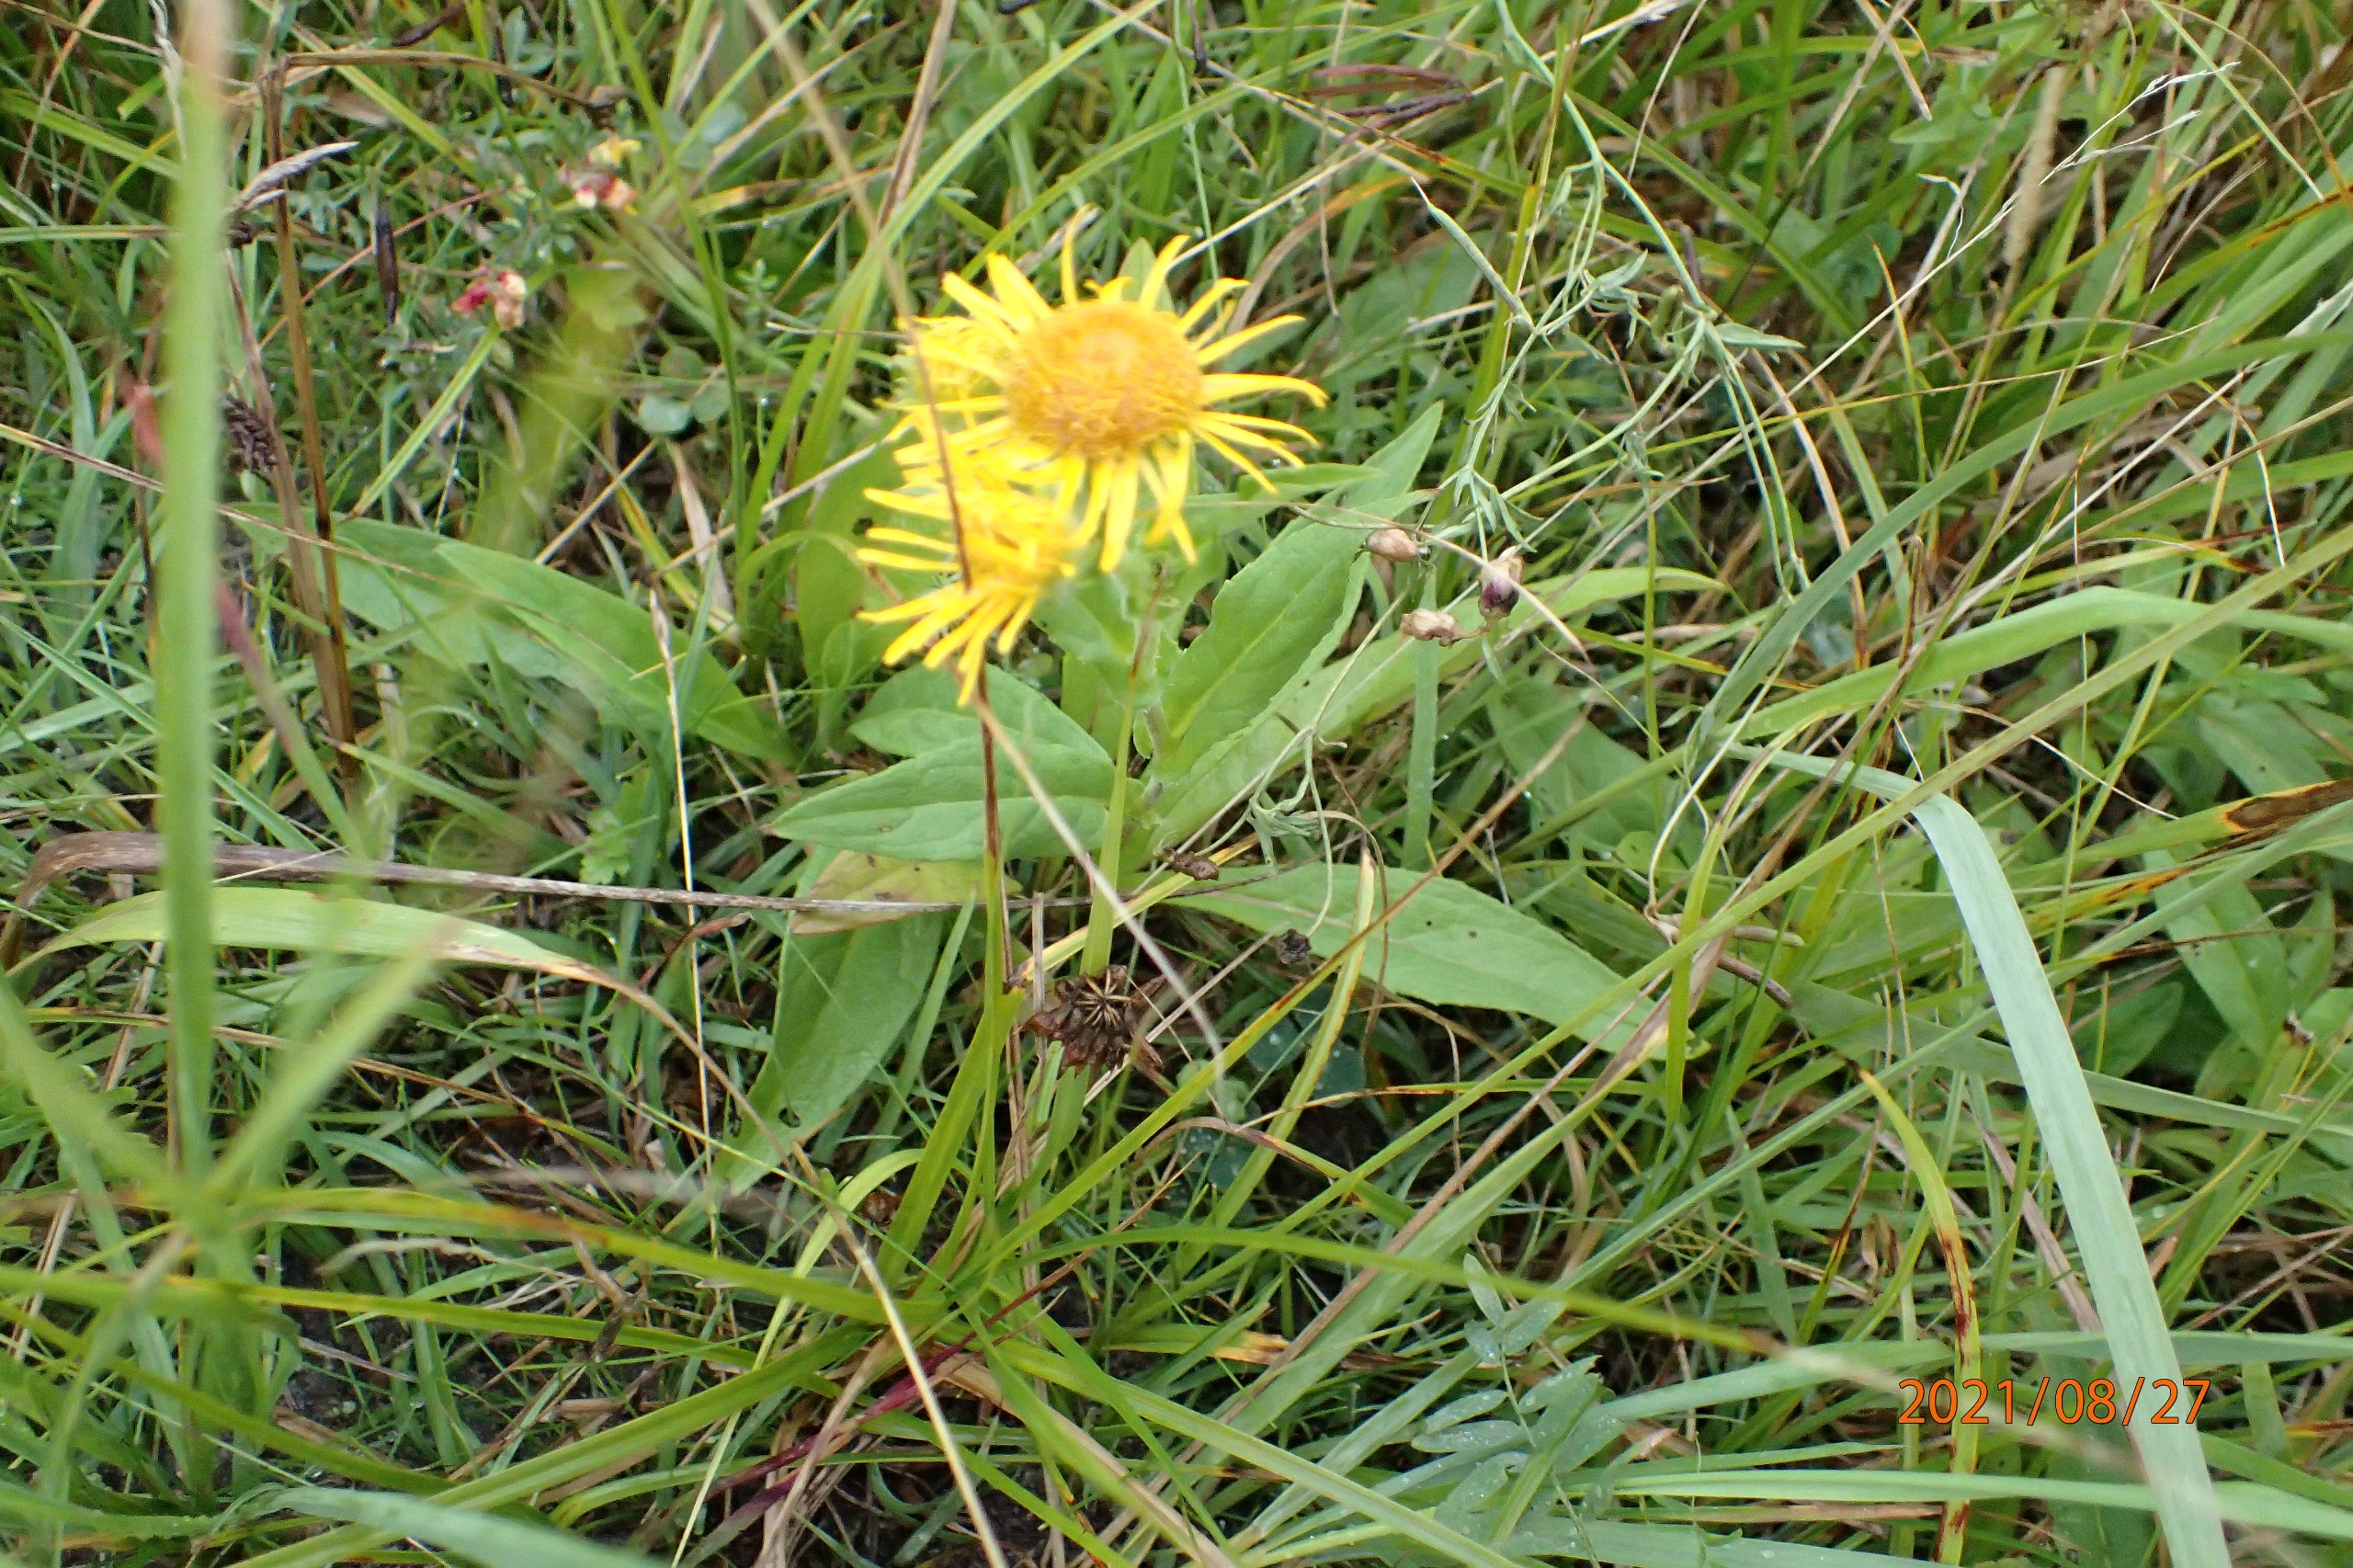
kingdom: Plantae
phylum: Tracheophyta
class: Magnoliopsida
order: Asterales
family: Asteraceae
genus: Pentanema
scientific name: Pentanema britannicum
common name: Soløje-alant
